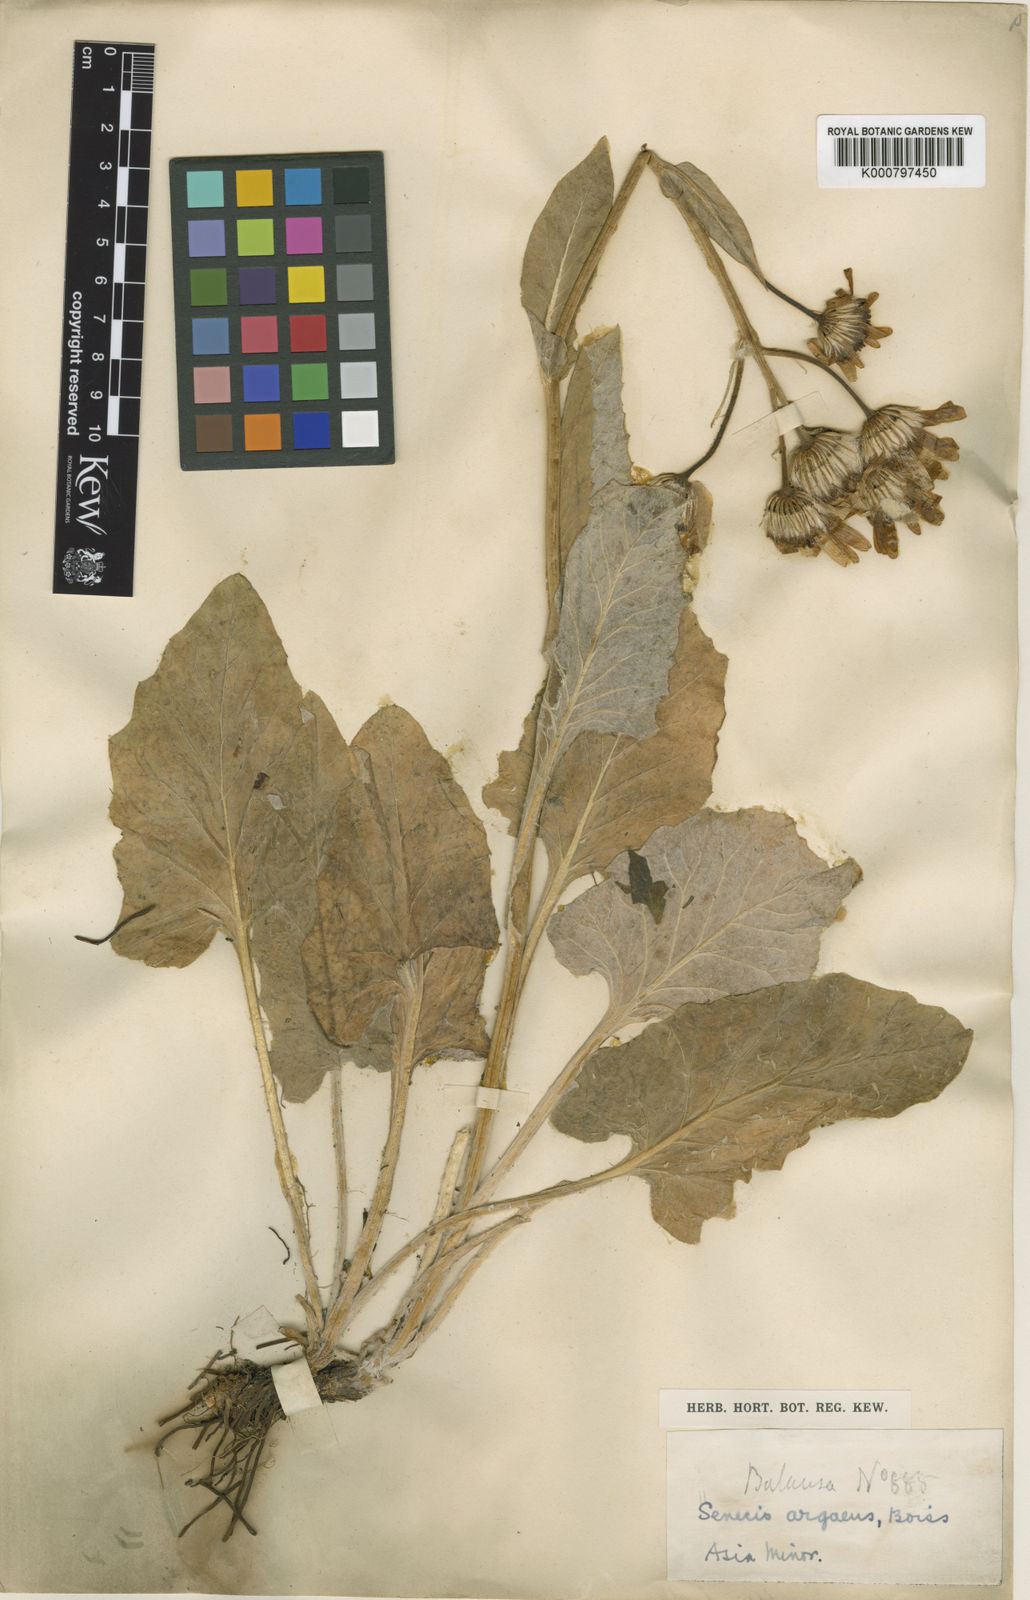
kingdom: Plantae
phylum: Tracheophyta
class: Magnoliopsida
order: Asterales
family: Asteraceae
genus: Turanecio
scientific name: Turanecio hypochionaeus
